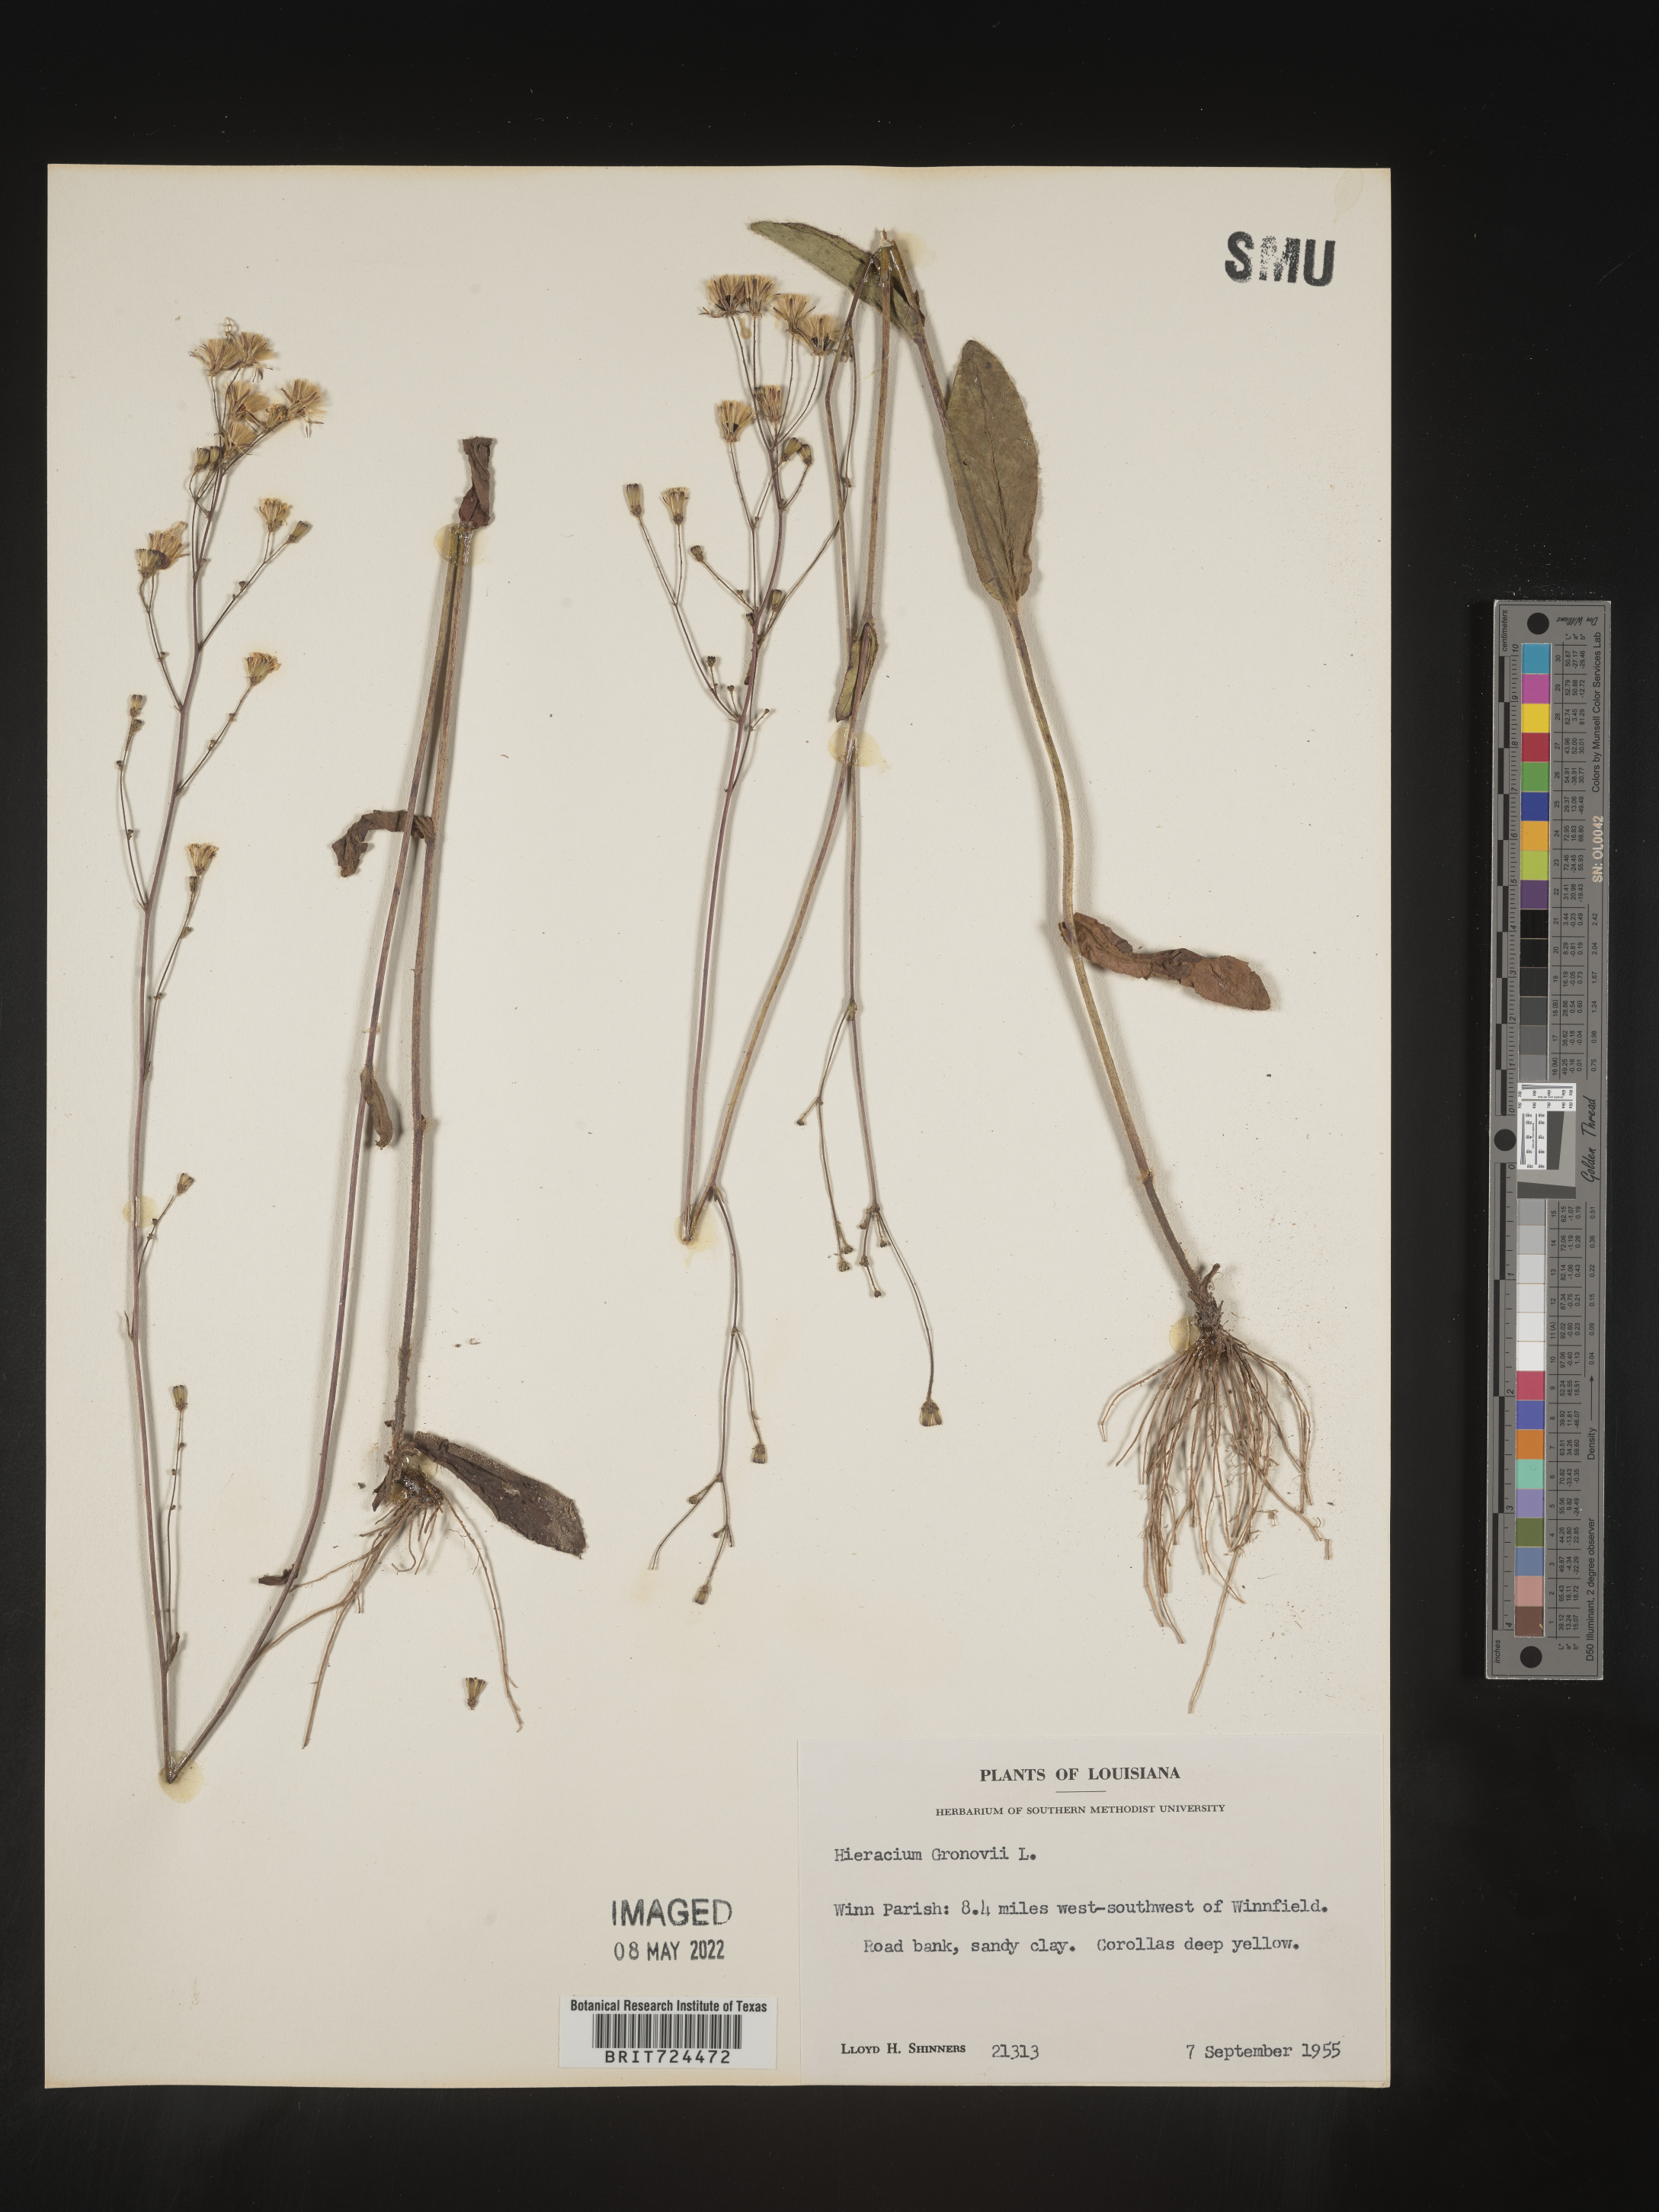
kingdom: Plantae
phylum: Tracheophyta
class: Magnoliopsida
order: Asterales
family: Asteraceae
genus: Hieracium
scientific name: Hieracium gronovii
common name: Beaked hawkweed
